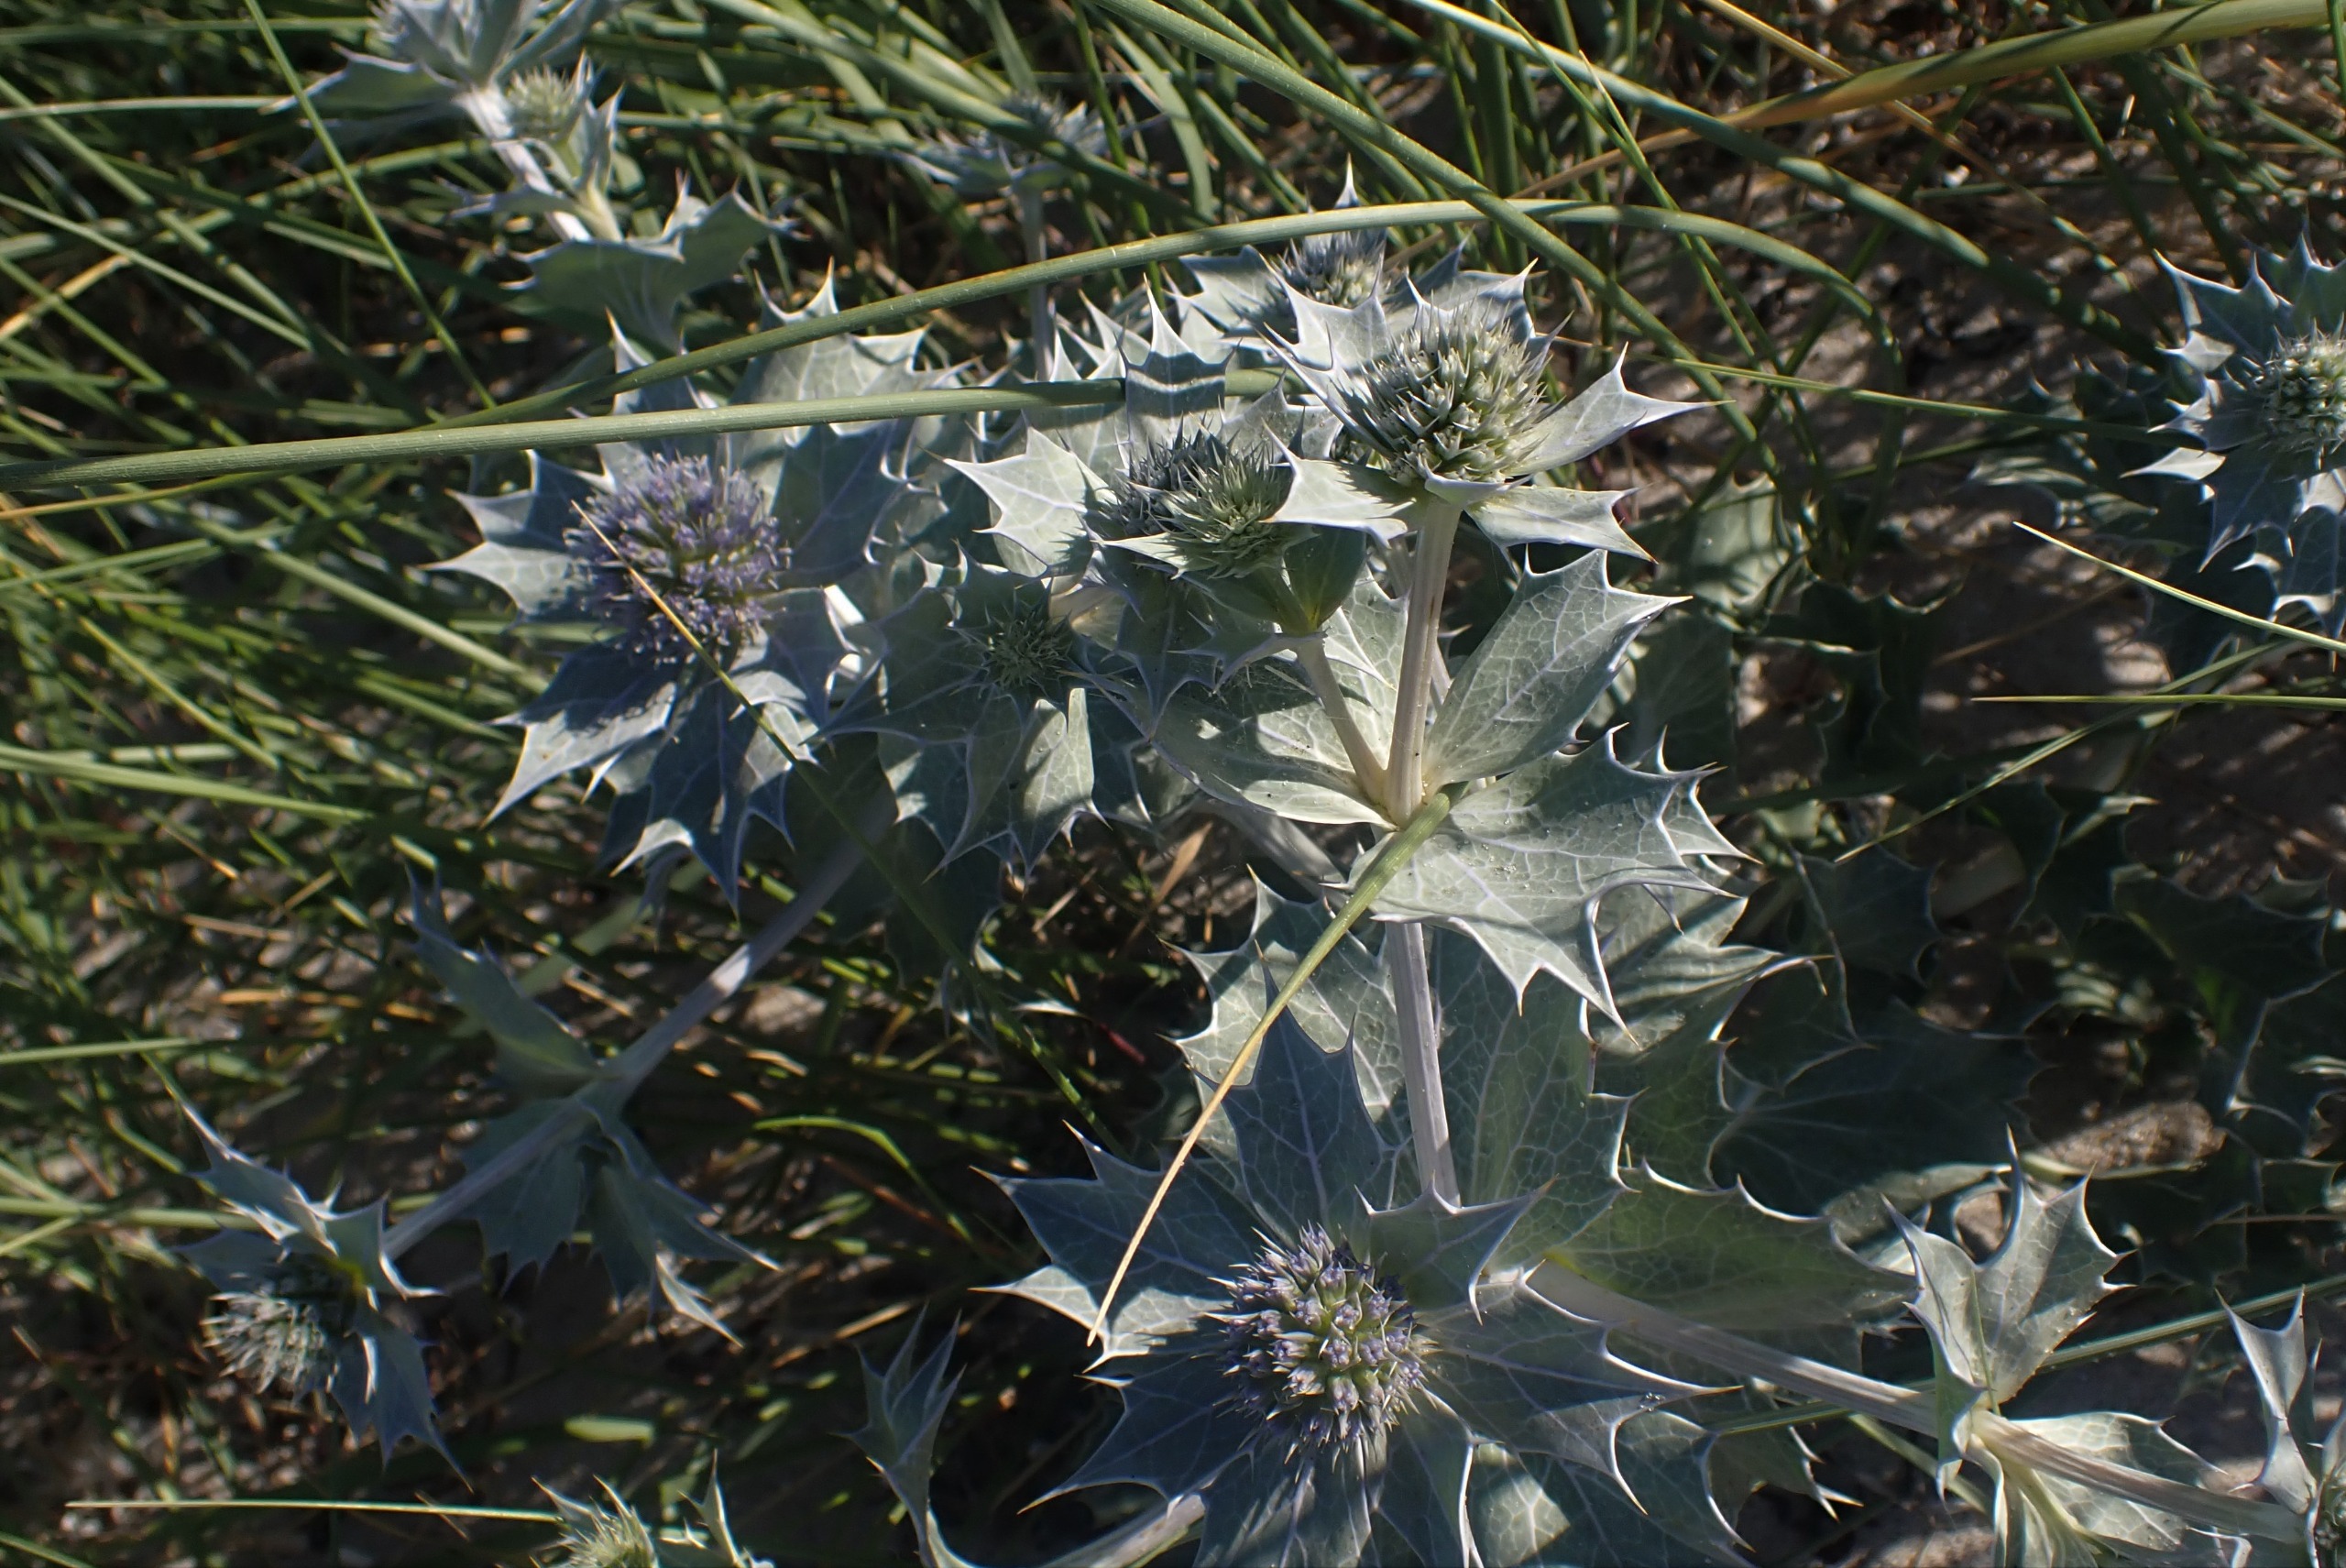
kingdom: Plantae
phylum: Tracheophyta
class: Magnoliopsida
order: Apiales
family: Apiaceae
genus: Eryngium
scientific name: Eryngium maritimum
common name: Strand-mandstro
